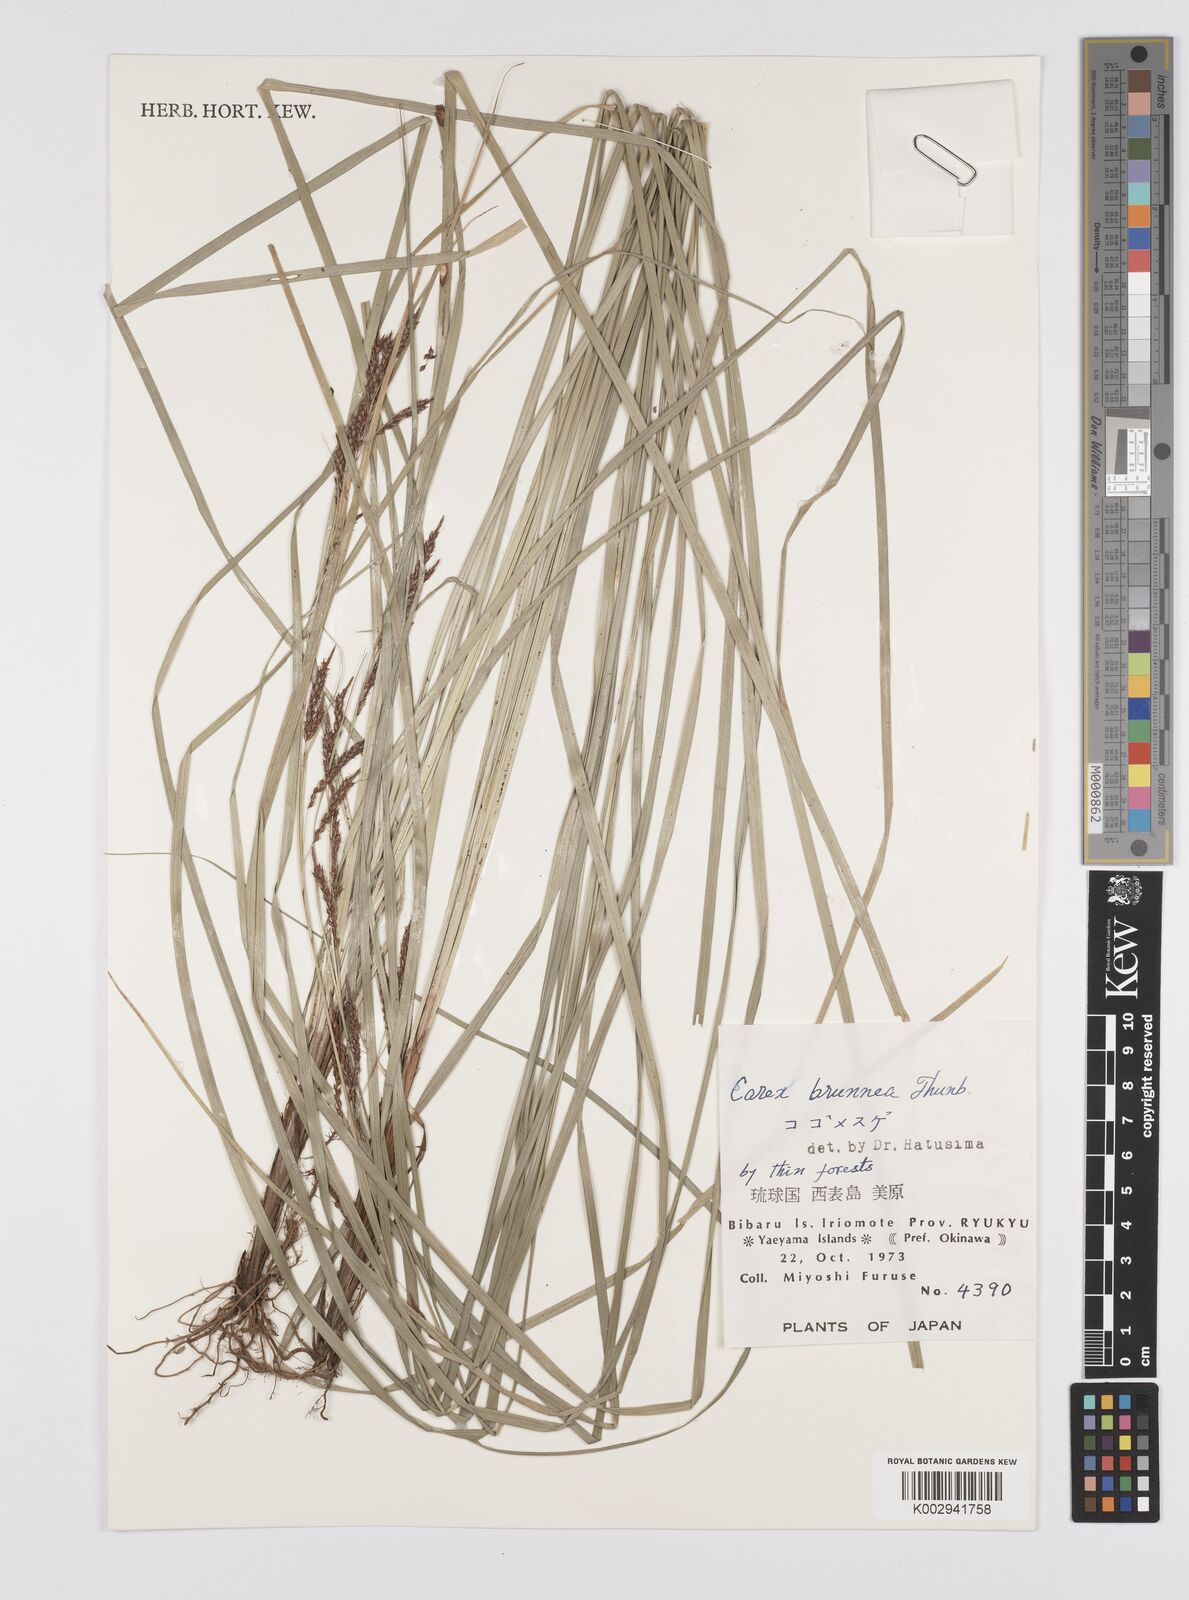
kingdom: Plantae
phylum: Tracheophyta
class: Liliopsida
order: Poales
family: Cyperaceae
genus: Carex
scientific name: Carex brunnea
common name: Greater brown sedge
